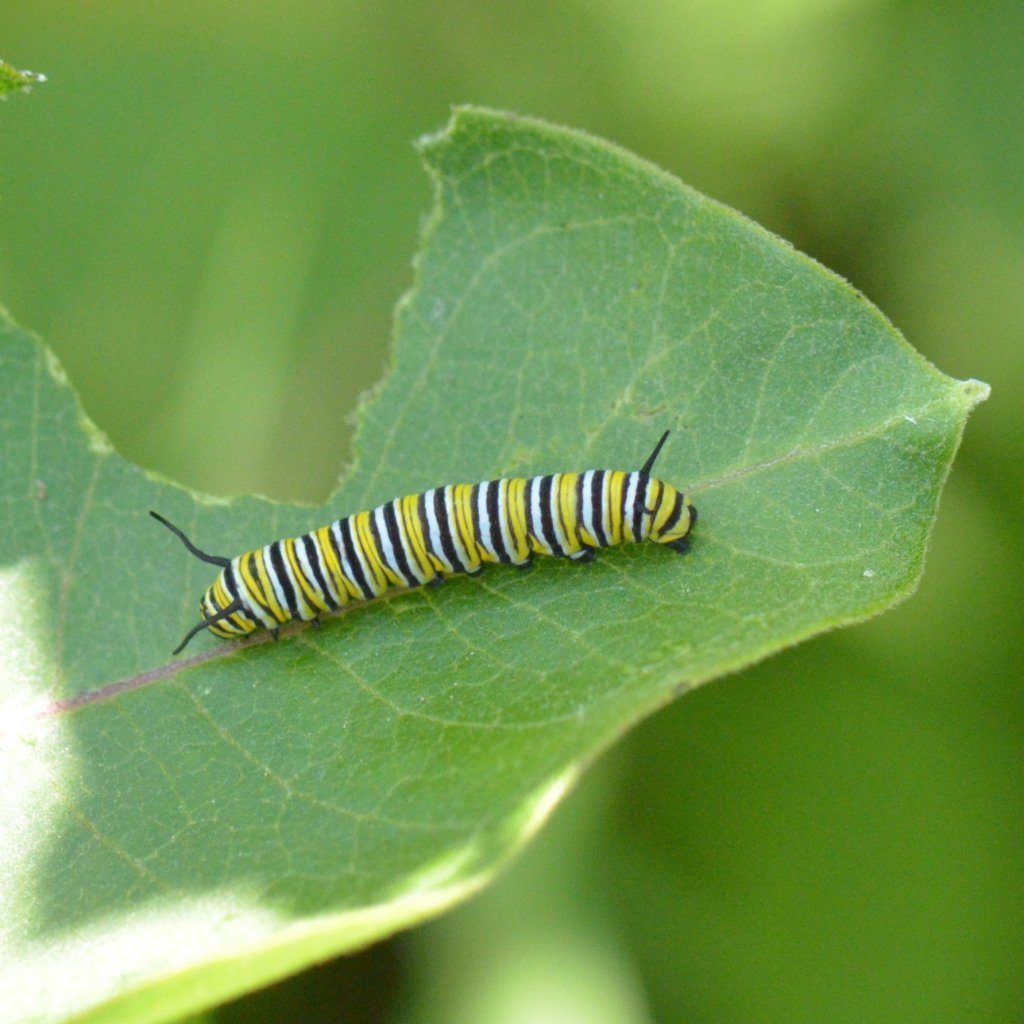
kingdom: Animalia
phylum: Arthropoda
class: Insecta
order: Lepidoptera
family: Nymphalidae
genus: Danaus
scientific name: Danaus plexippus
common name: Monarch
